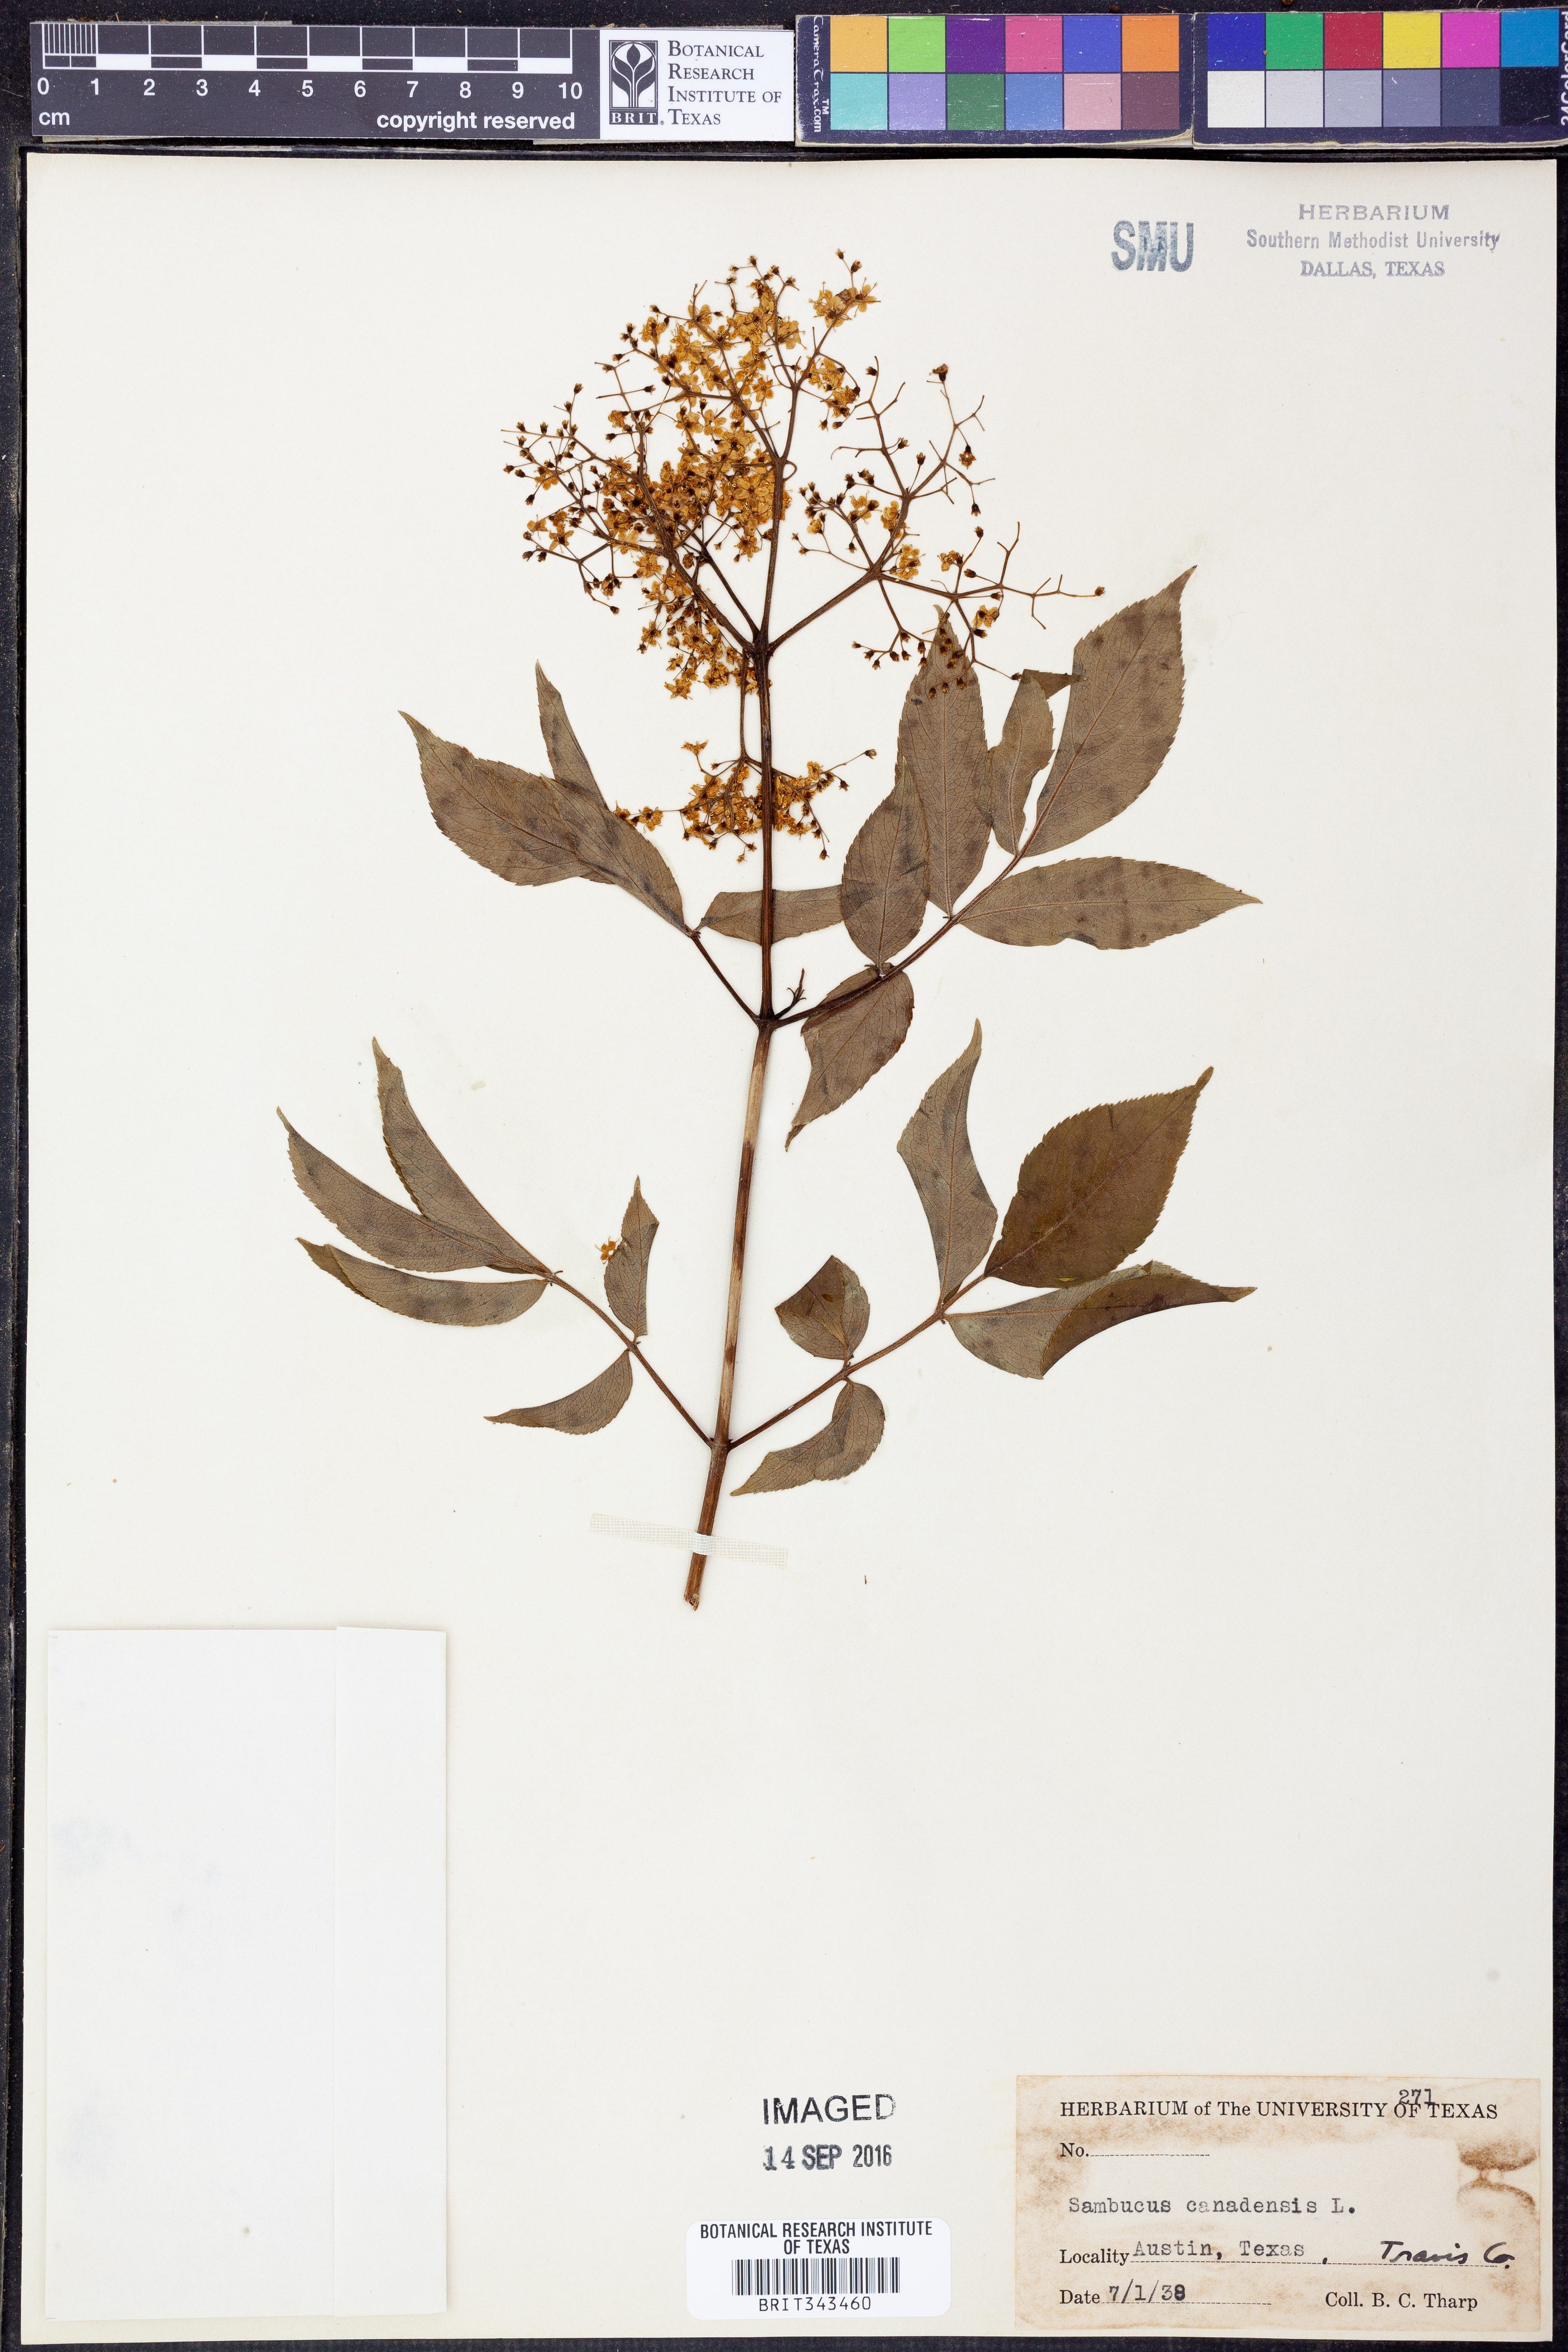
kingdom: Plantae
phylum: Tracheophyta
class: Magnoliopsida
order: Dipsacales
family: Viburnaceae
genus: Sambucus
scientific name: Sambucus canadensis
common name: American elder
